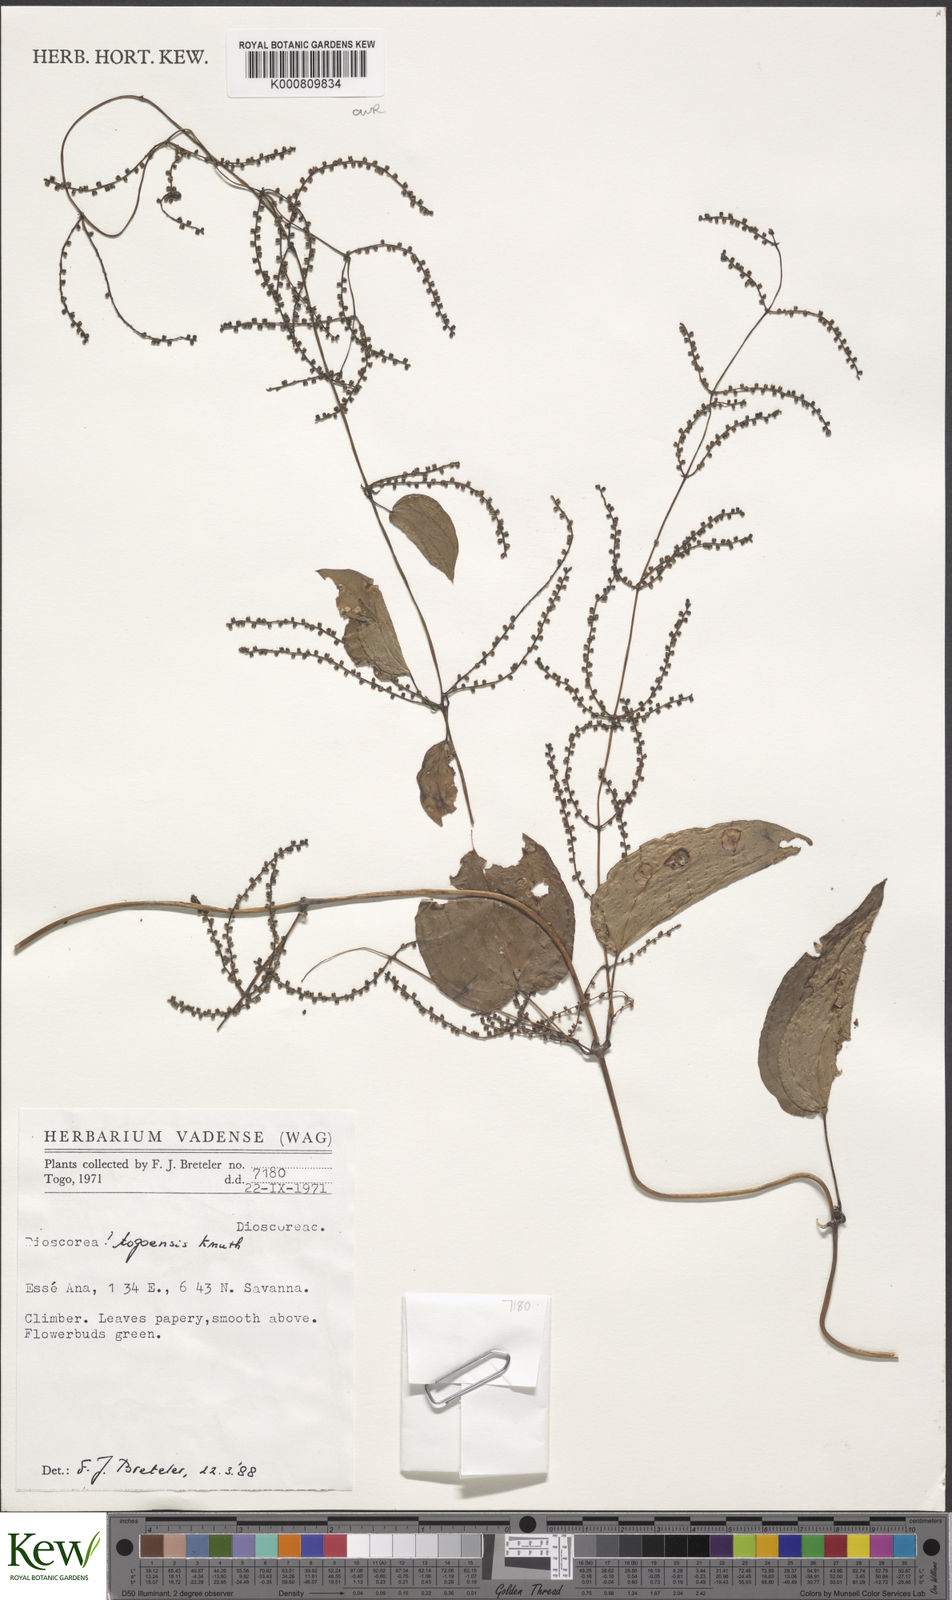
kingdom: Plantae
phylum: Tracheophyta
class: Liliopsida
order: Dioscoreales
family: Dioscoreaceae
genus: Dioscorea
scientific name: Dioscorea togoensis
